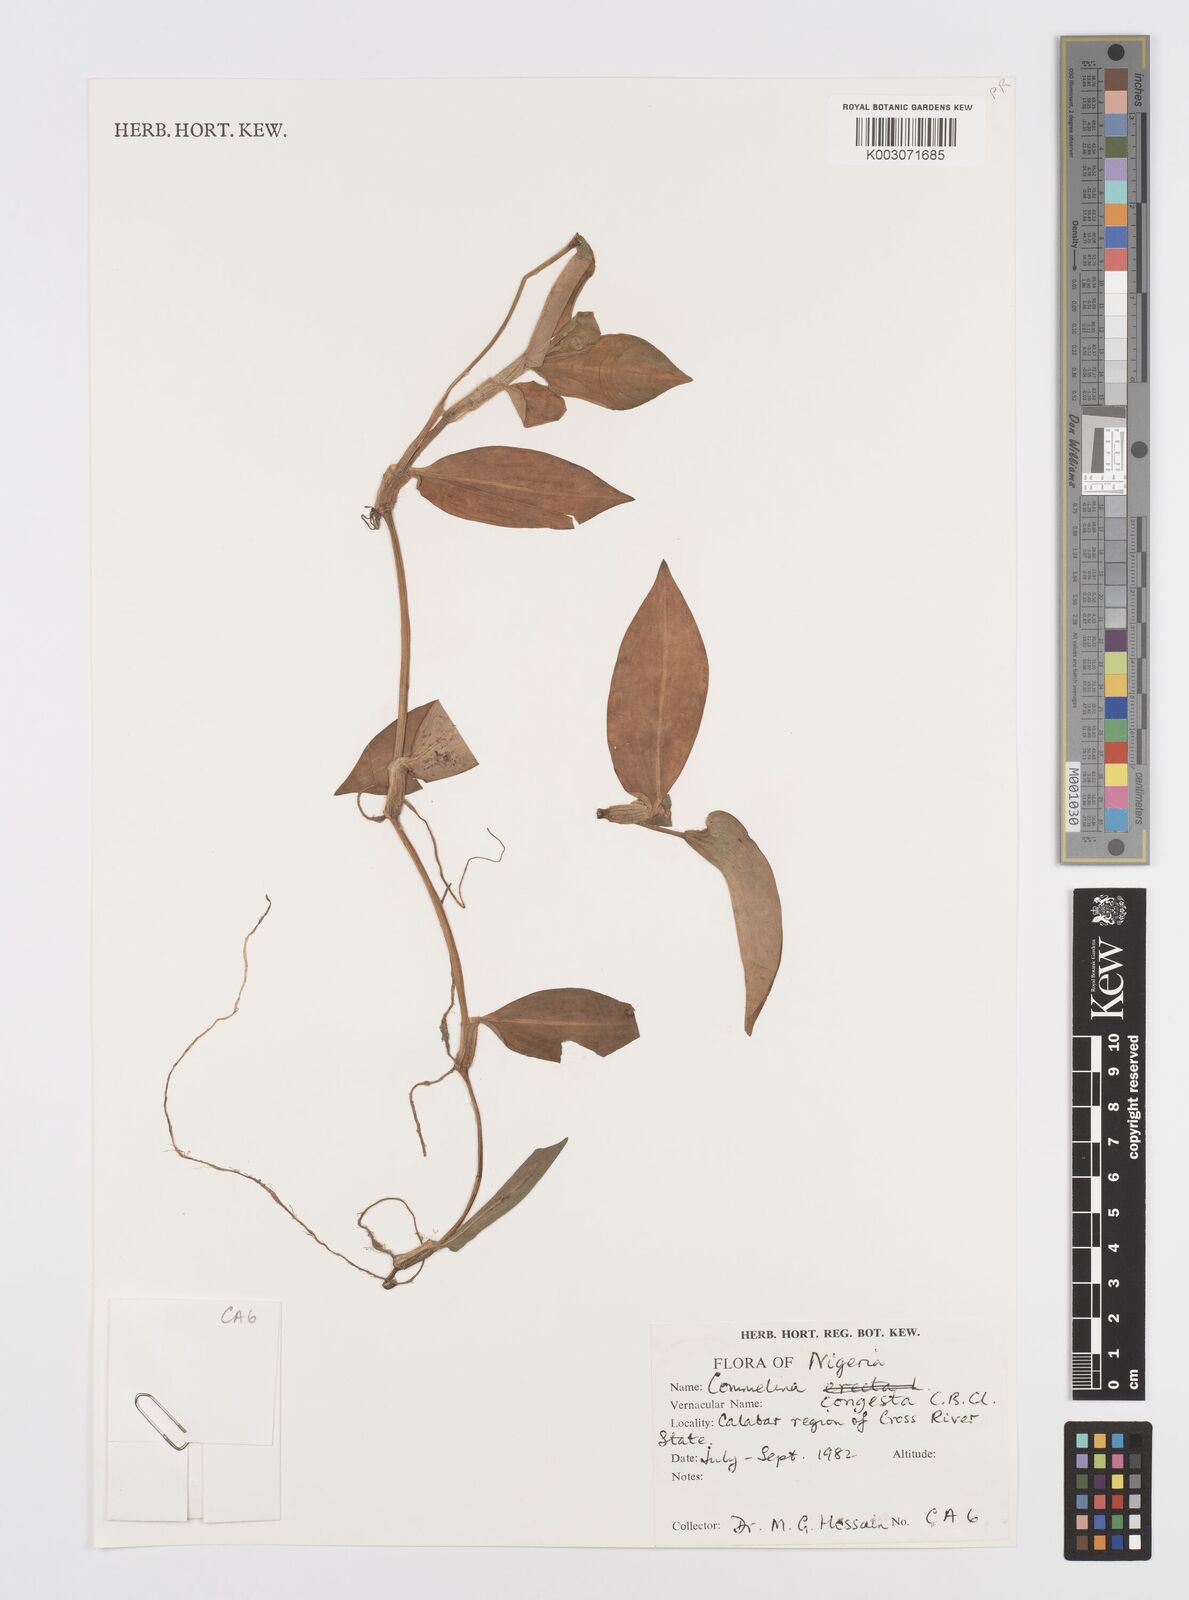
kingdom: Plantae
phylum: Tracheophyta
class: Liliopsida
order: Commelinales
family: Commelinaceae
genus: Commelina
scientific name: Commelina congesta
